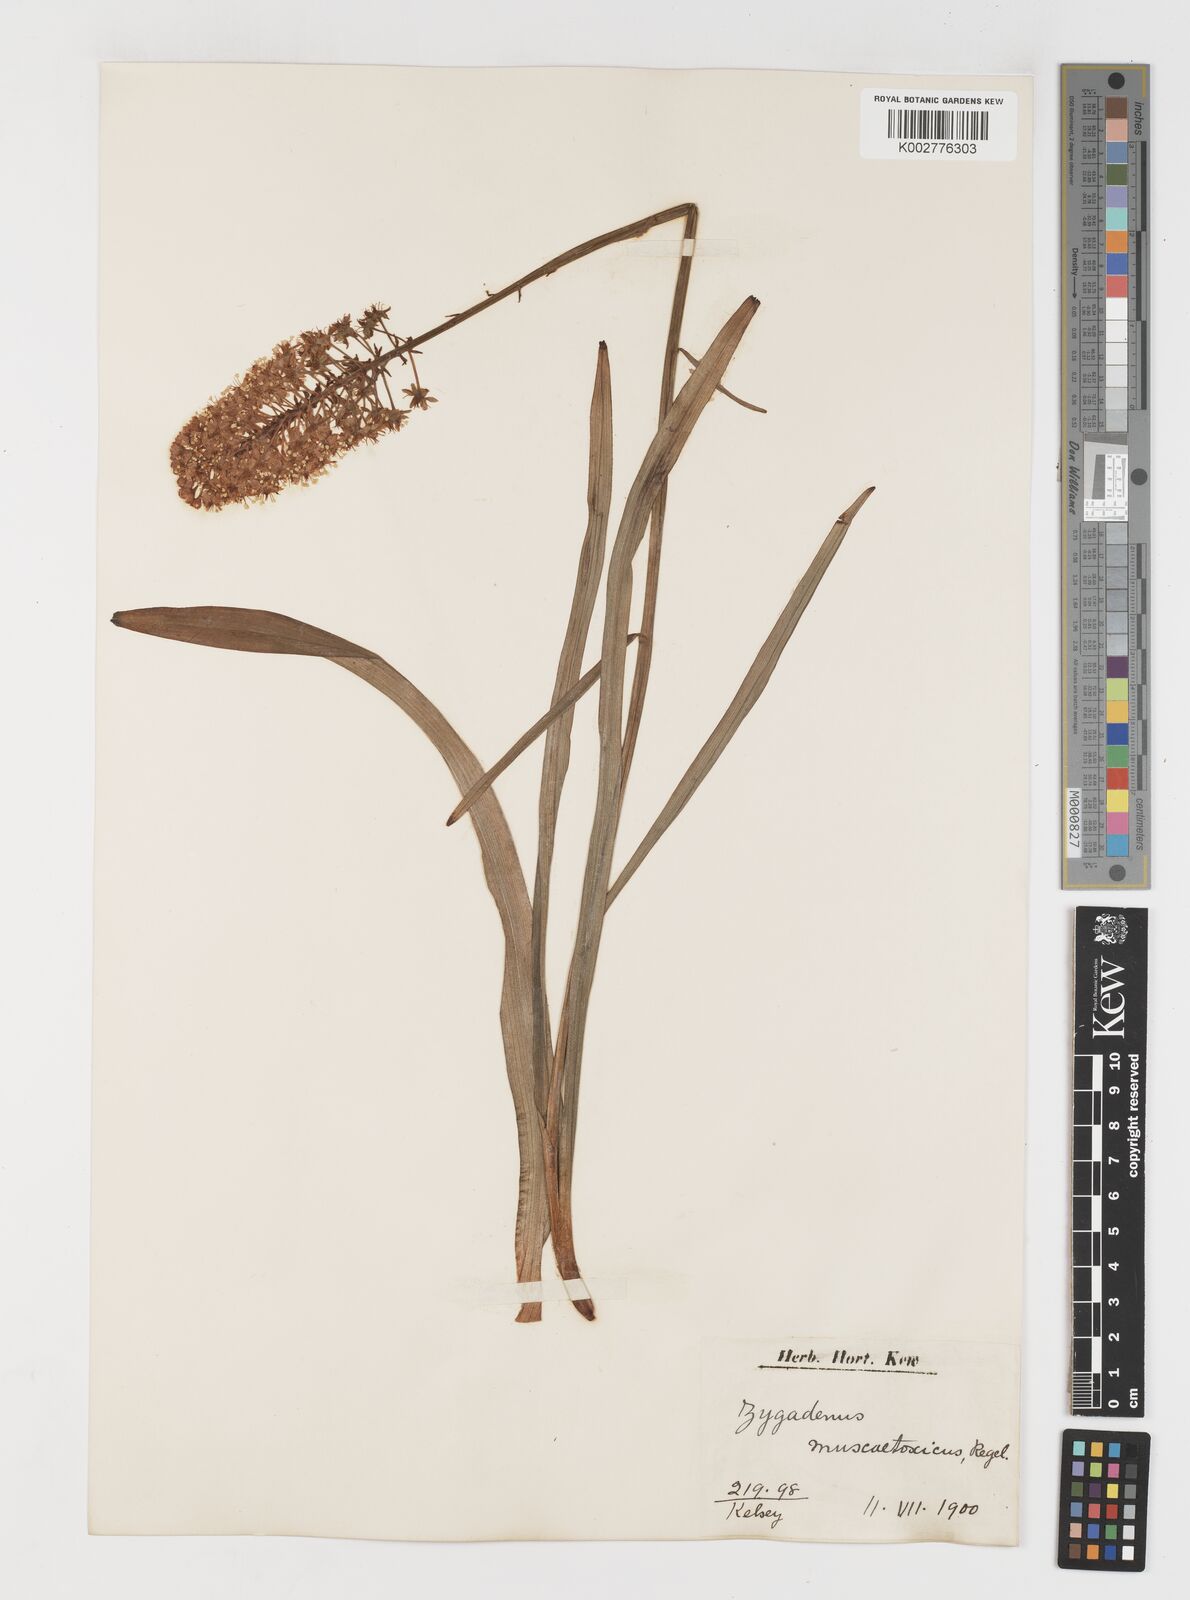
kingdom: Plantae
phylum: Tracheophyta
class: Liliopsida
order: Liliales
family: Melanthiaceae
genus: Amianthium
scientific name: Amianthium muscitoxicum
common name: Fly-poison
